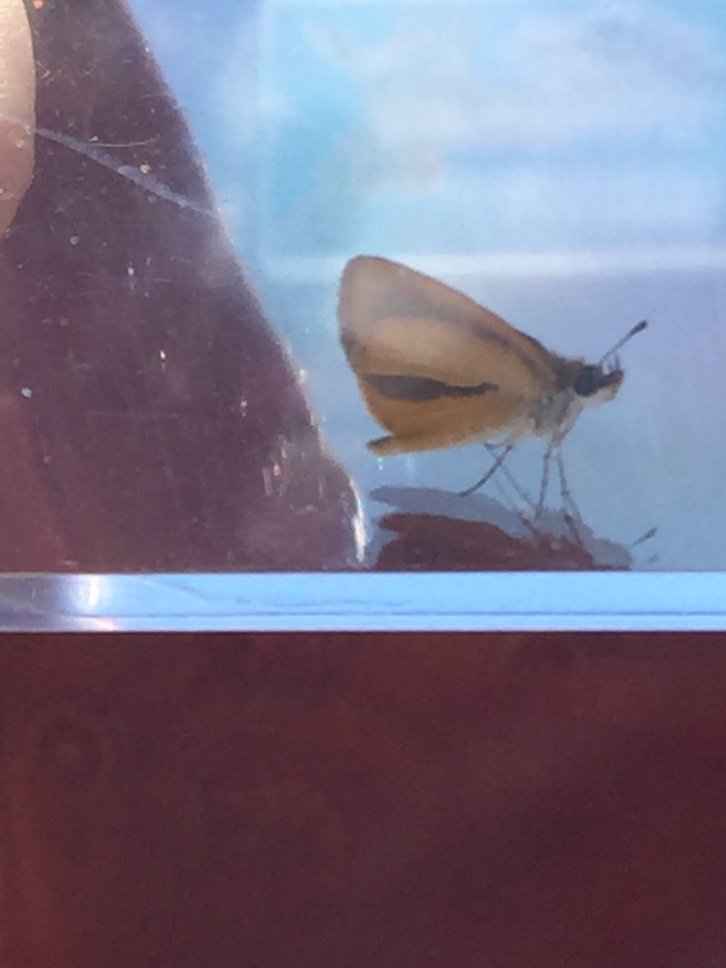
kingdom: Animalia
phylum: Arthropoda
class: Insecta
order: Lepidoptera
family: Hesperiidae
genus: Ancyloxypha
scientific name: Ancyloxypha numitor
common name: Least Skipper
